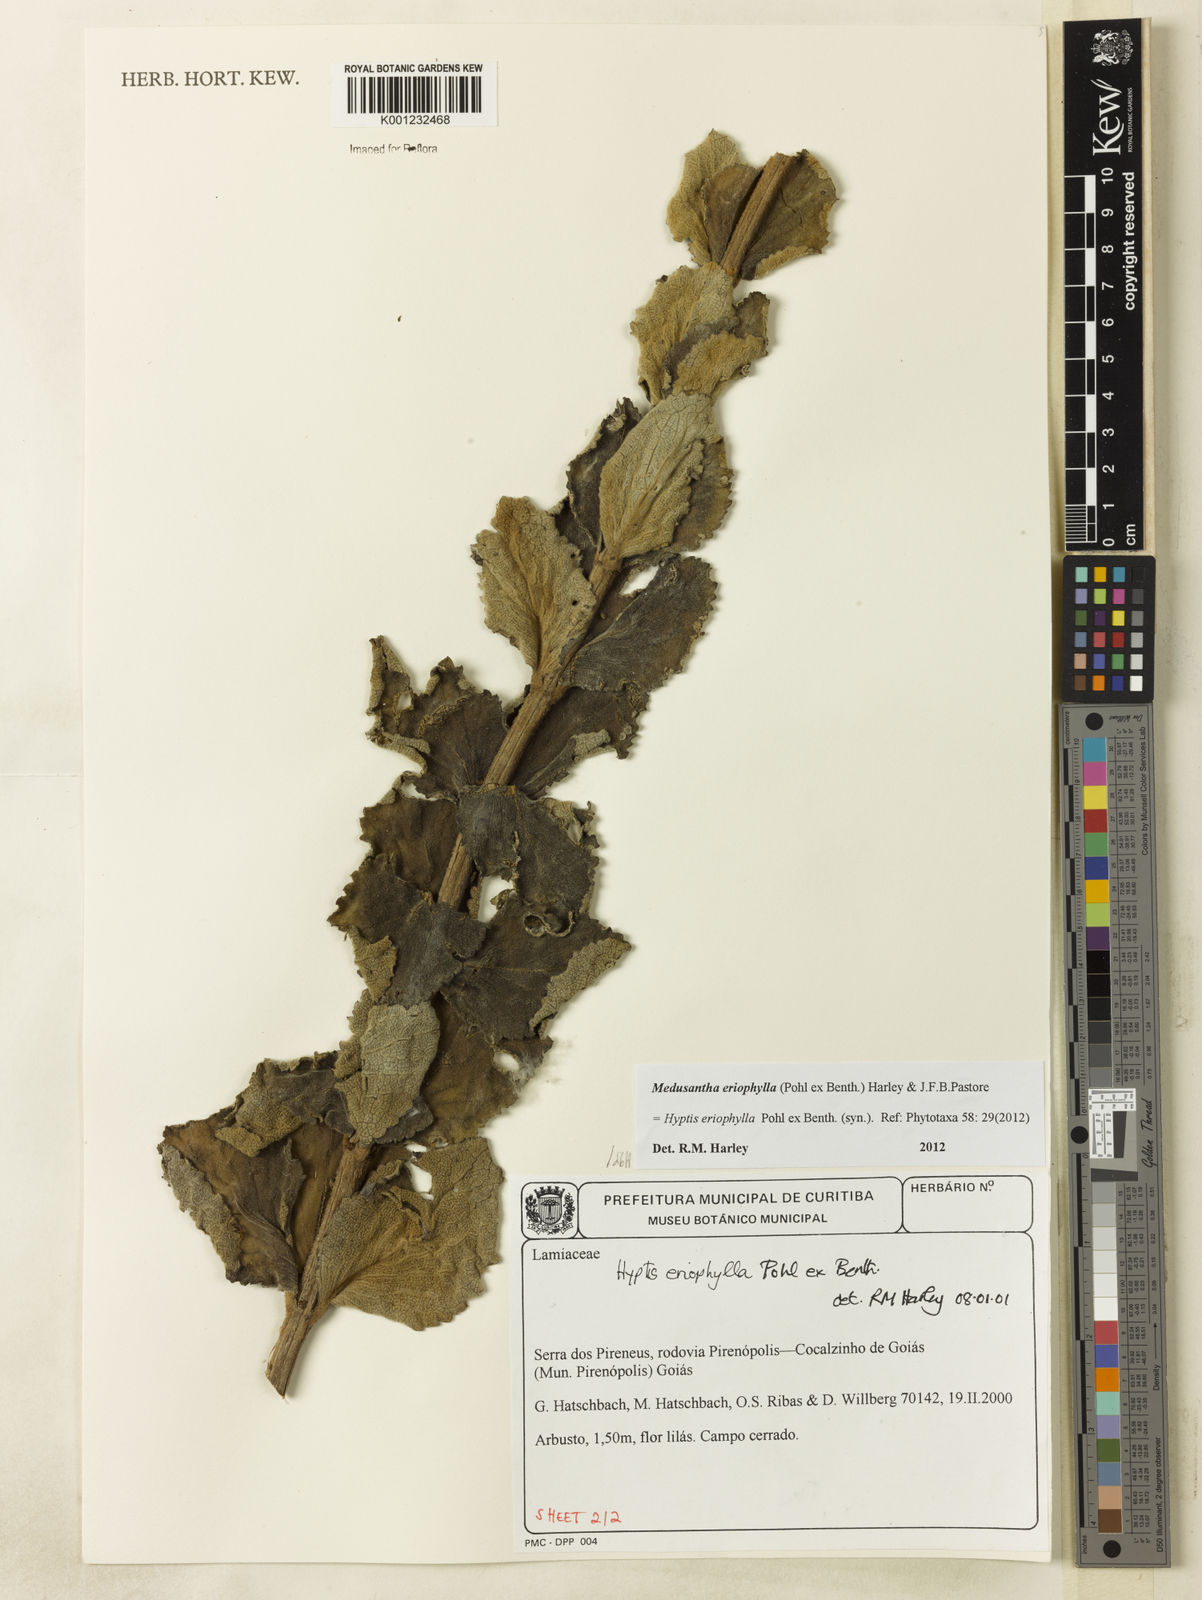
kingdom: Plantae
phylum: Tracheophyta
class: Magnoliopsida
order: Lamiales
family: Lamiaceae
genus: Medusantha
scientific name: Medusantha eriophylla
